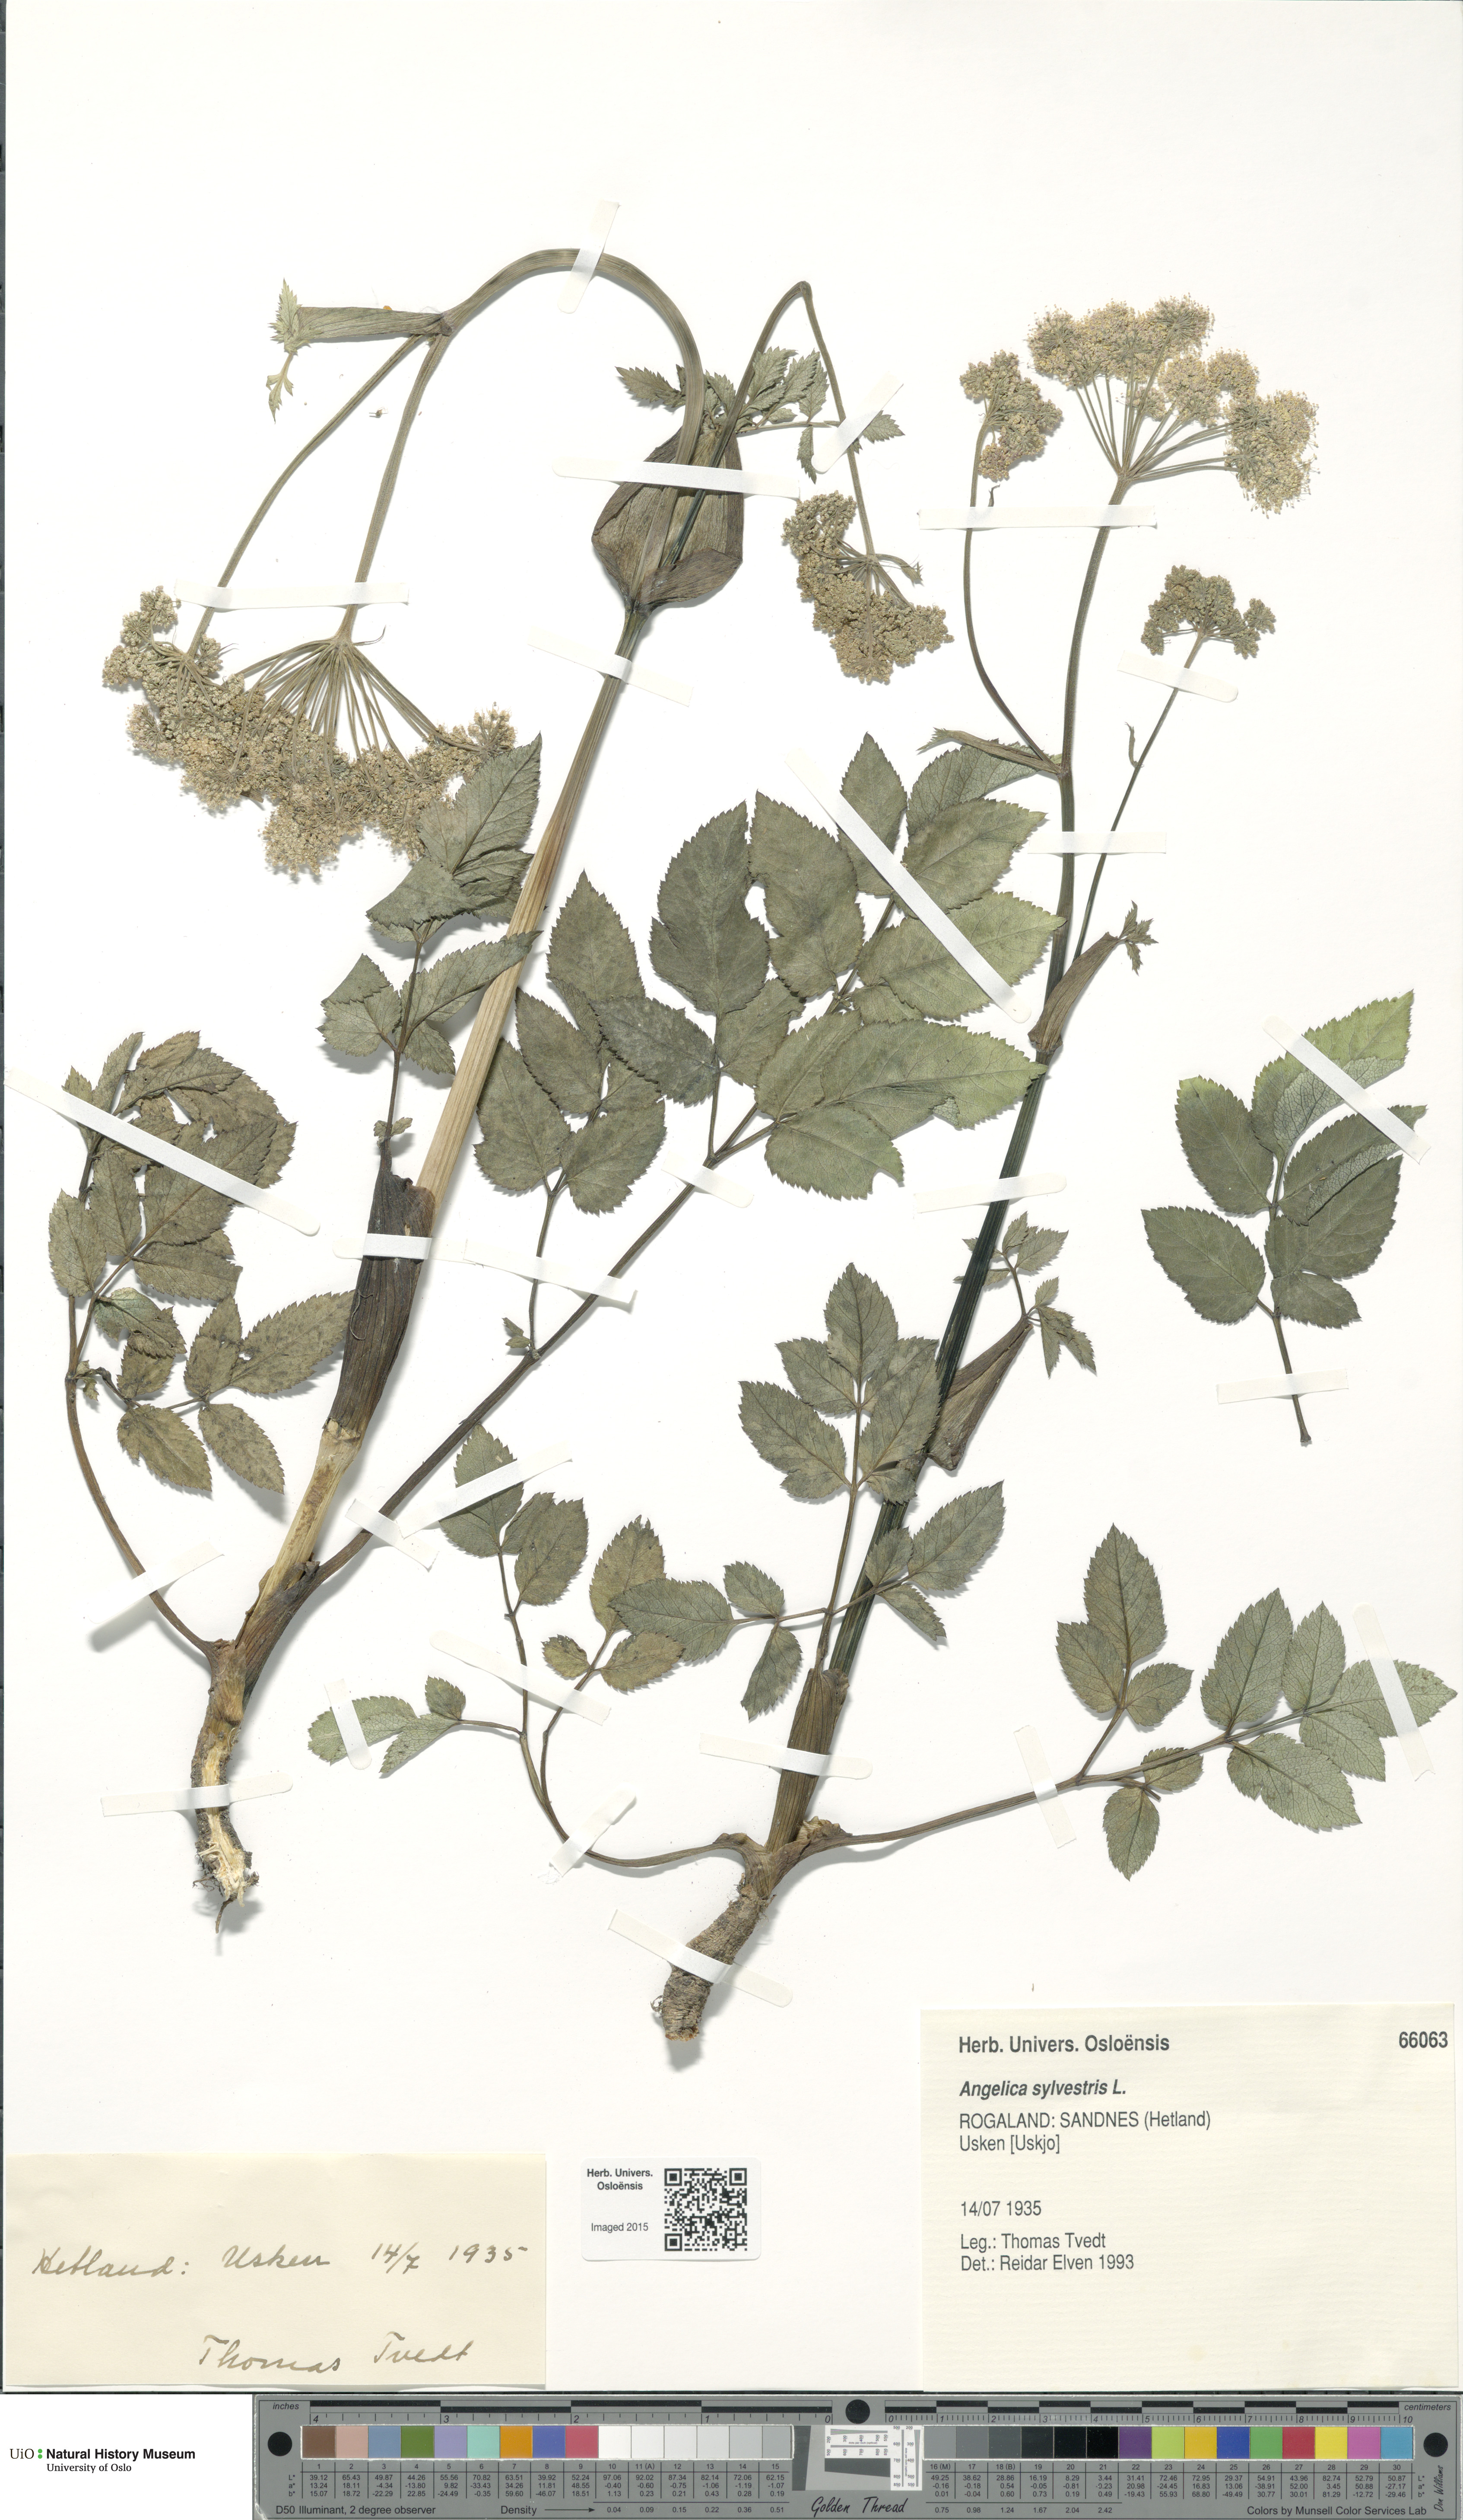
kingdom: Plantae
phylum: Tracheophyta
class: Magnoliopsida
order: Apiales
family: Apiaceae
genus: Angelica
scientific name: Angelica sylvestris
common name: Wild angelica
